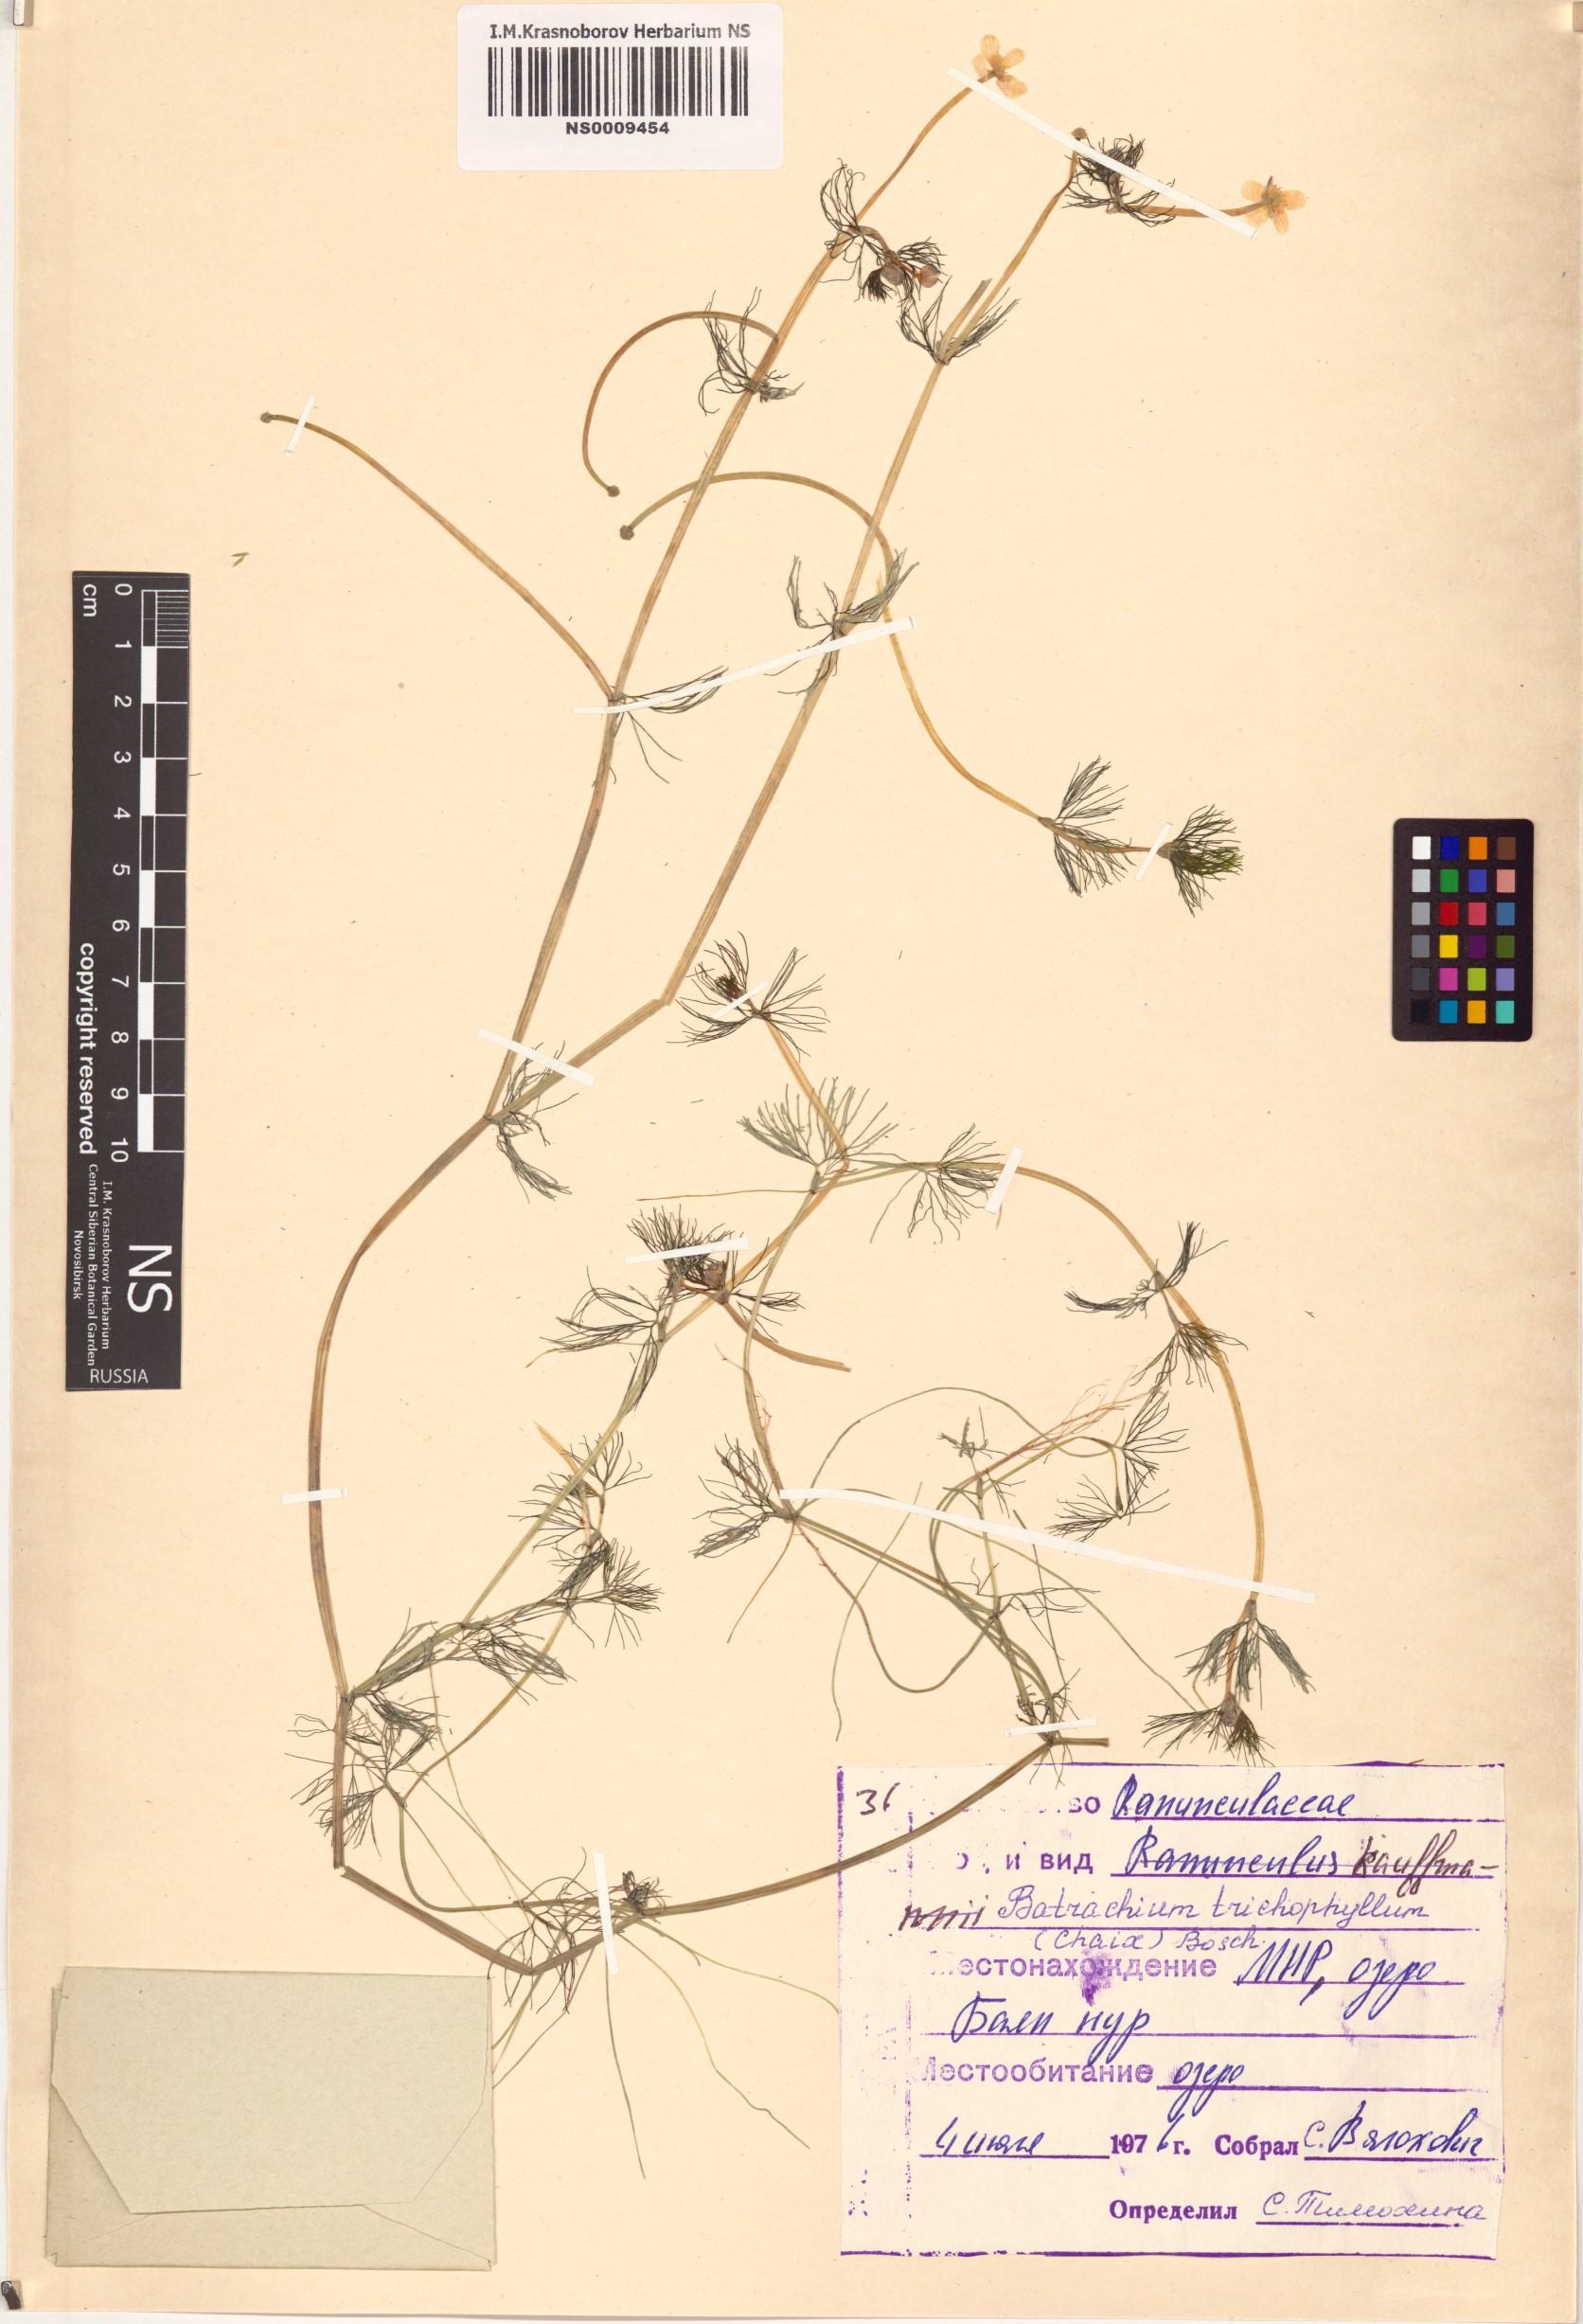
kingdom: Plantae
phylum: Tracheophyta
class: Magnoliopsida
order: Ranunculales
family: Ranunculaceae
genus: Ranunculus
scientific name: Ranunculus trichophyllus
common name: Thread-leaved water-crowfoot
